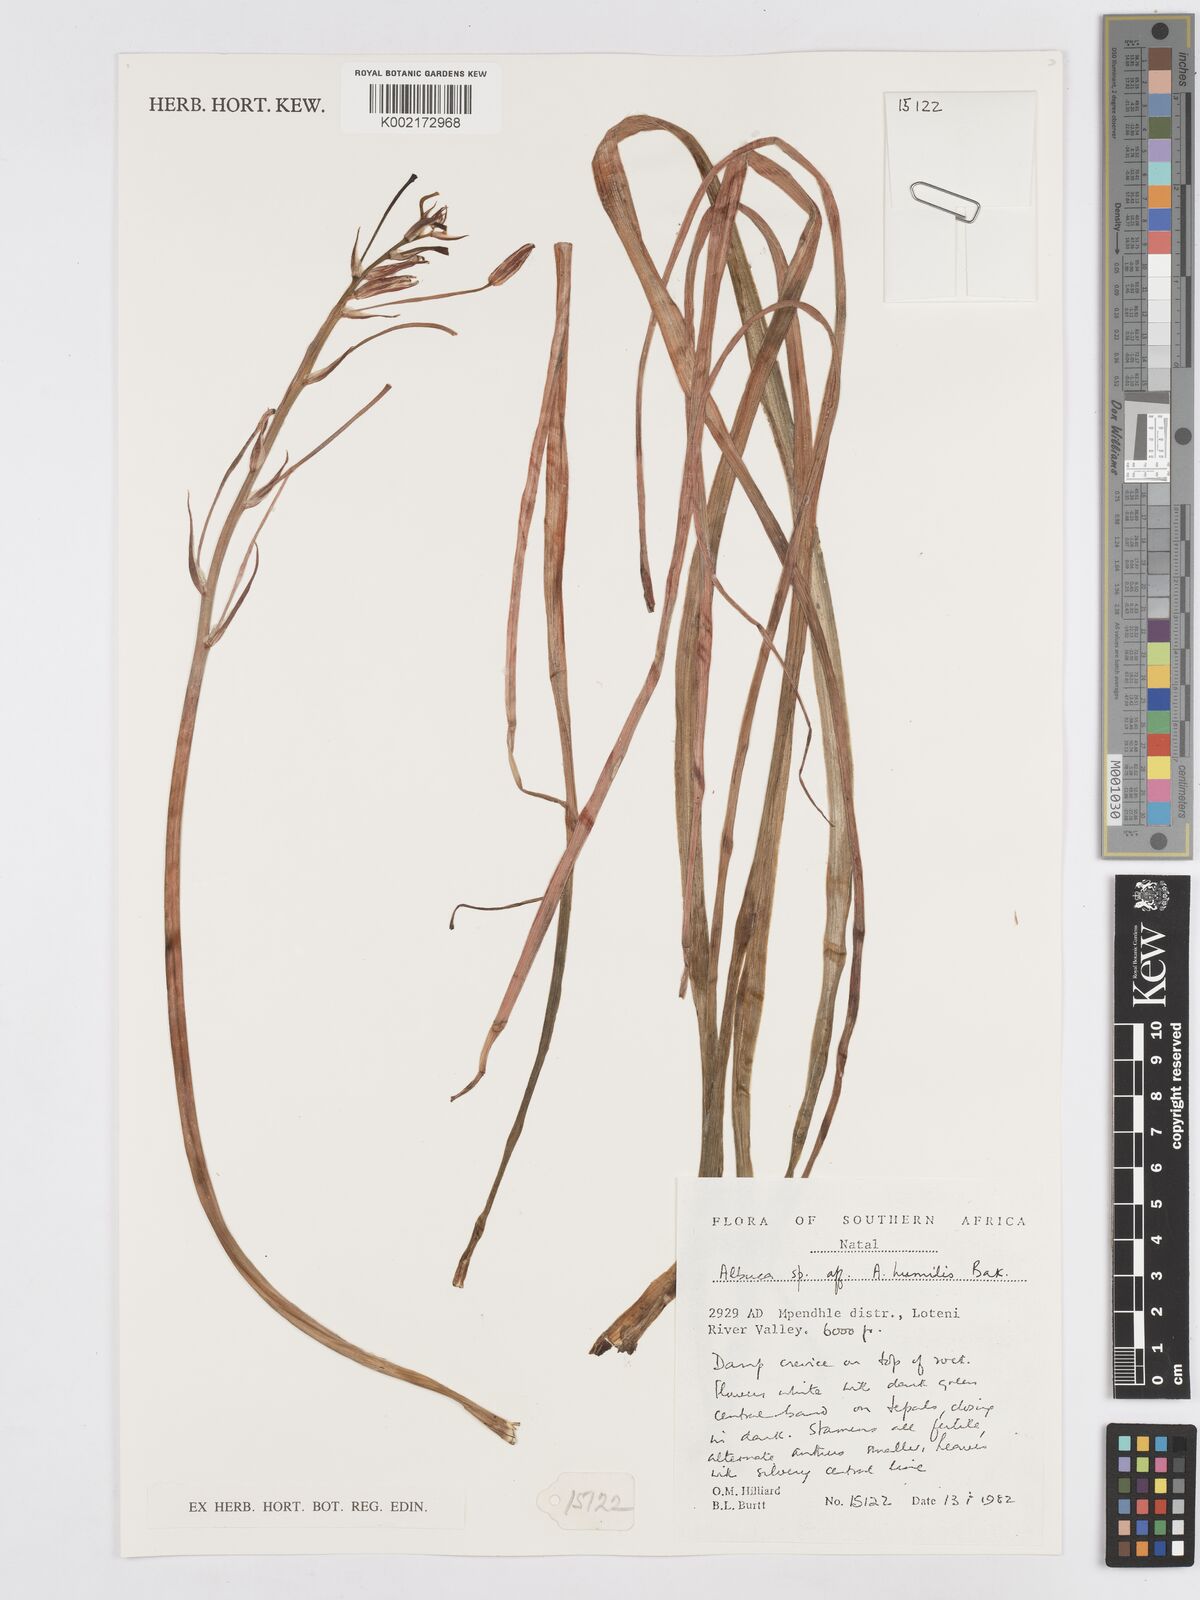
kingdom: Plantae
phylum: Tracheophyta
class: Liliopsida
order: Asparagales
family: Asparagaceae
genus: Albuca
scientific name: Albuca humilis
